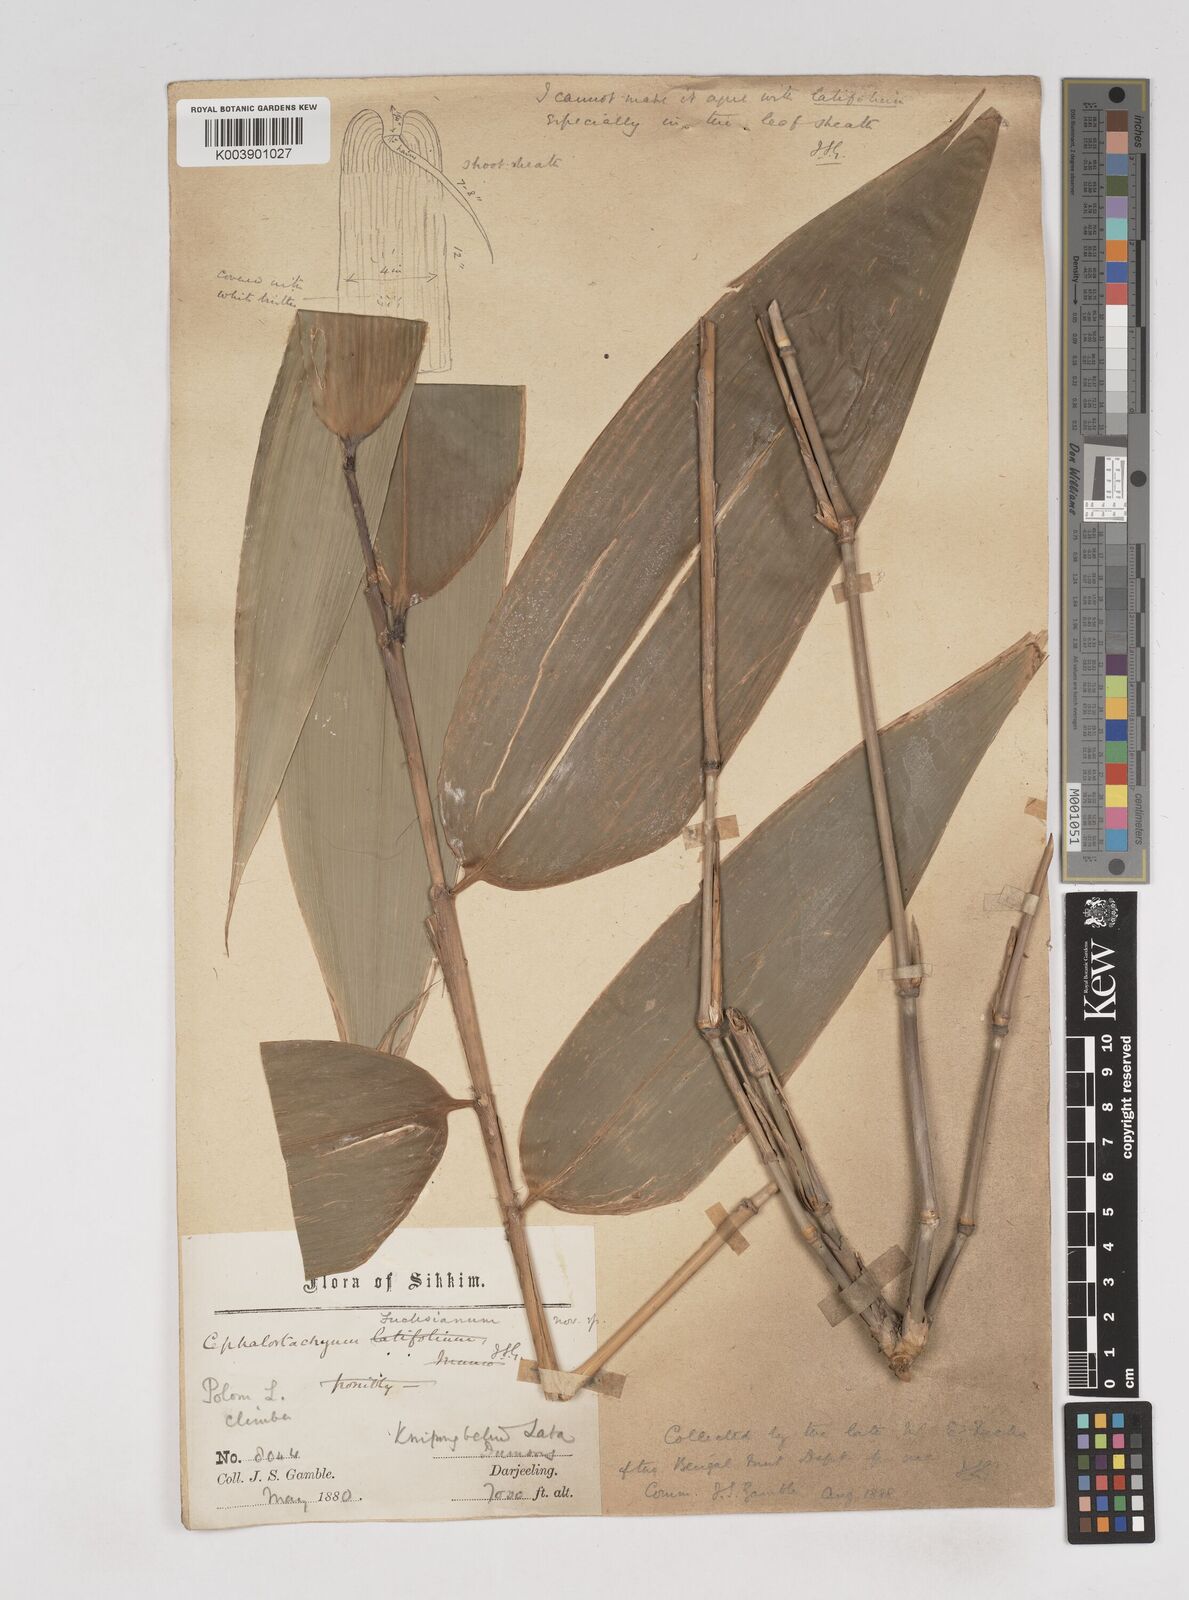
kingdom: Plantae
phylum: Tracheophyta
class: Liliopsida
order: Poales
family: Poaceae
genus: Cephalostachyum
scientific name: Cephalostachyum
